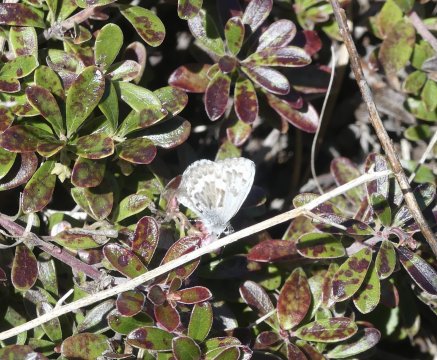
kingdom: Animalia
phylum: Arthropoda
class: Insecta
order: Lepidoptera
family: Lycaenidae
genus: Celastrina
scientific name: Celastrina ladon
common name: Spring Azure
